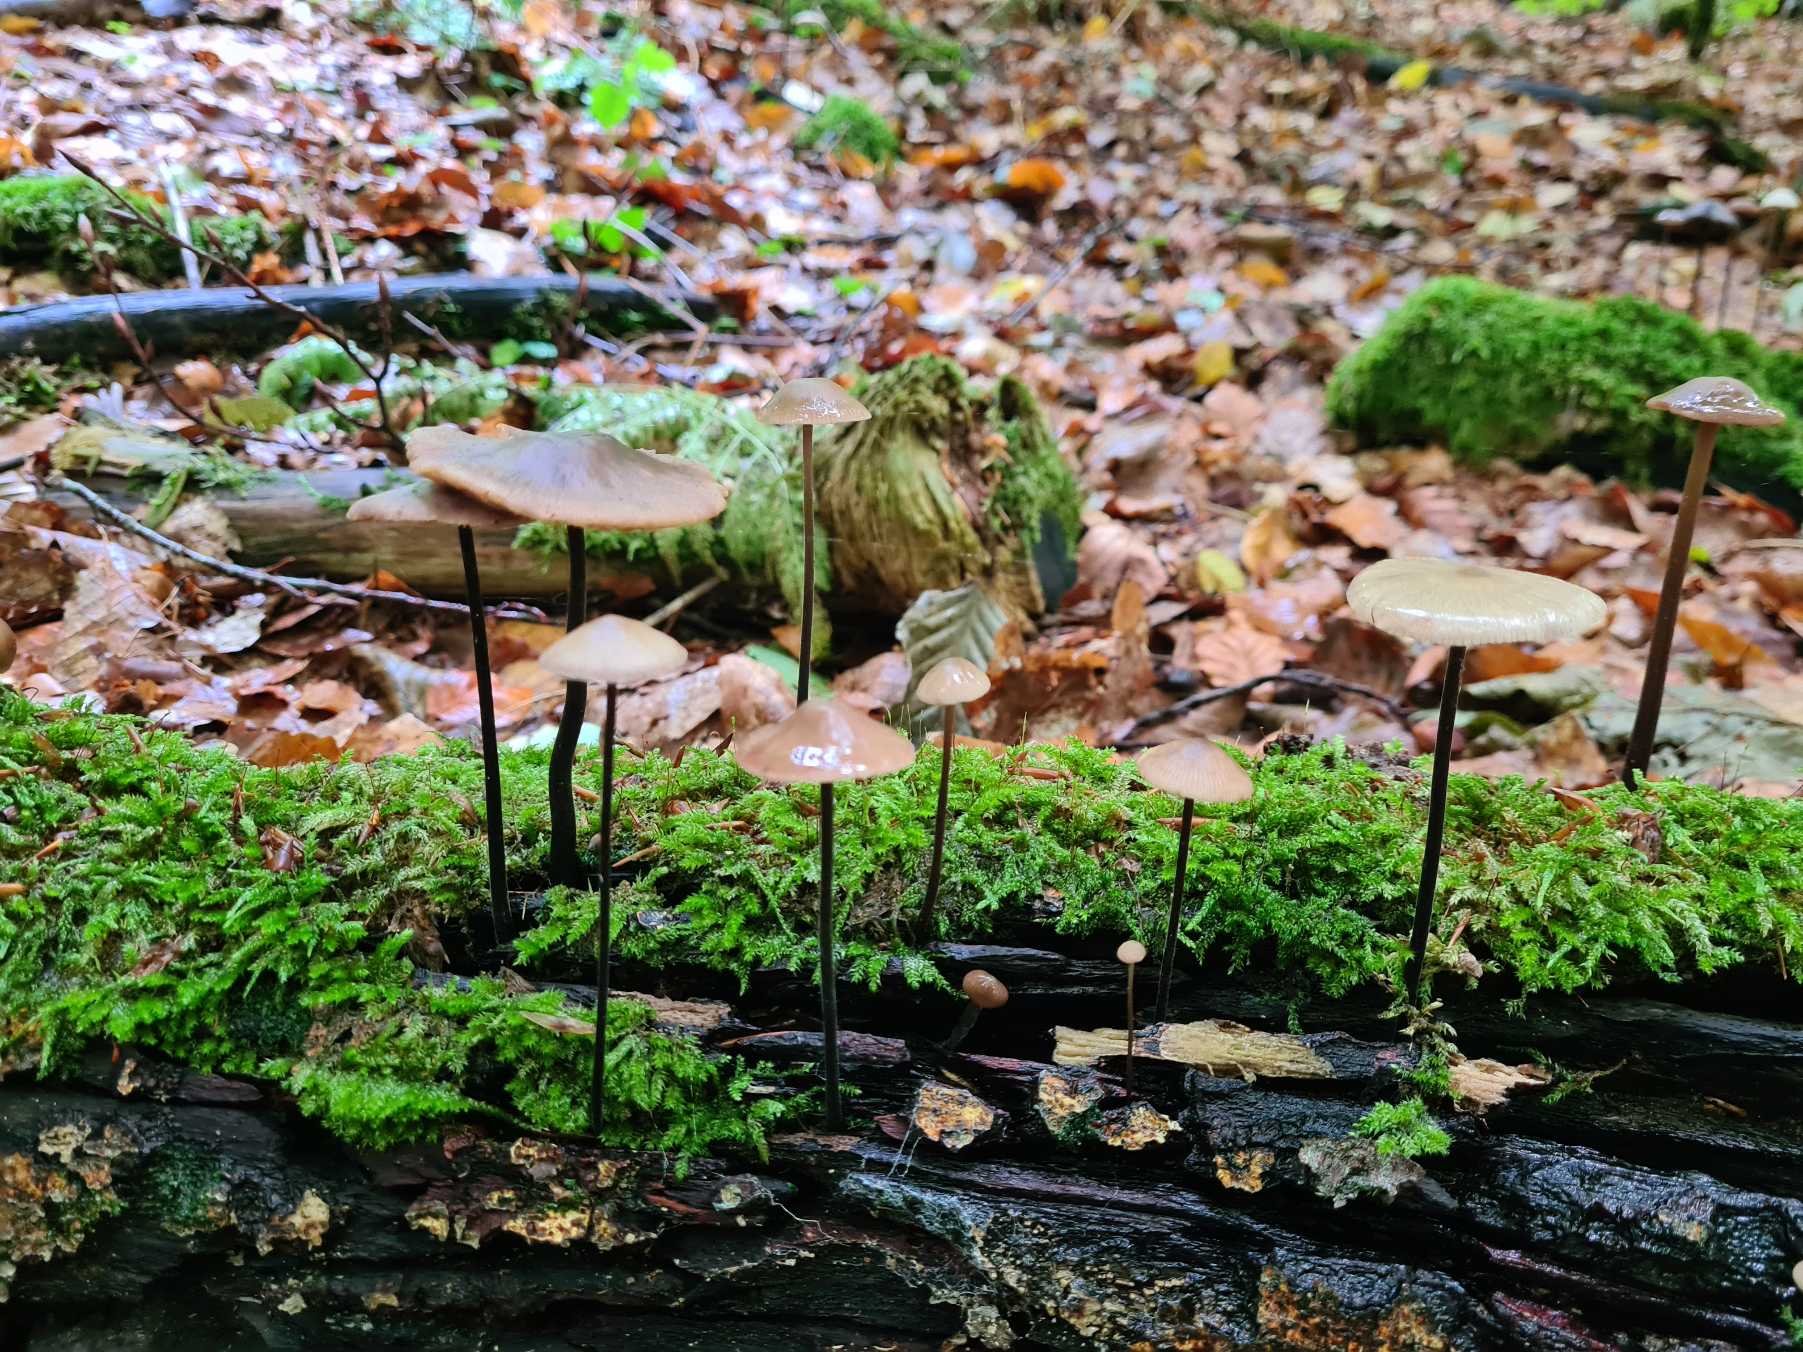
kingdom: Fungi
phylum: Basidiomycota
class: Agaricomycetes
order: Agaricales
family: Omphalotaceae
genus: Mycetinis
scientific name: Mycetinis alliaceus
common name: Stor løghat
